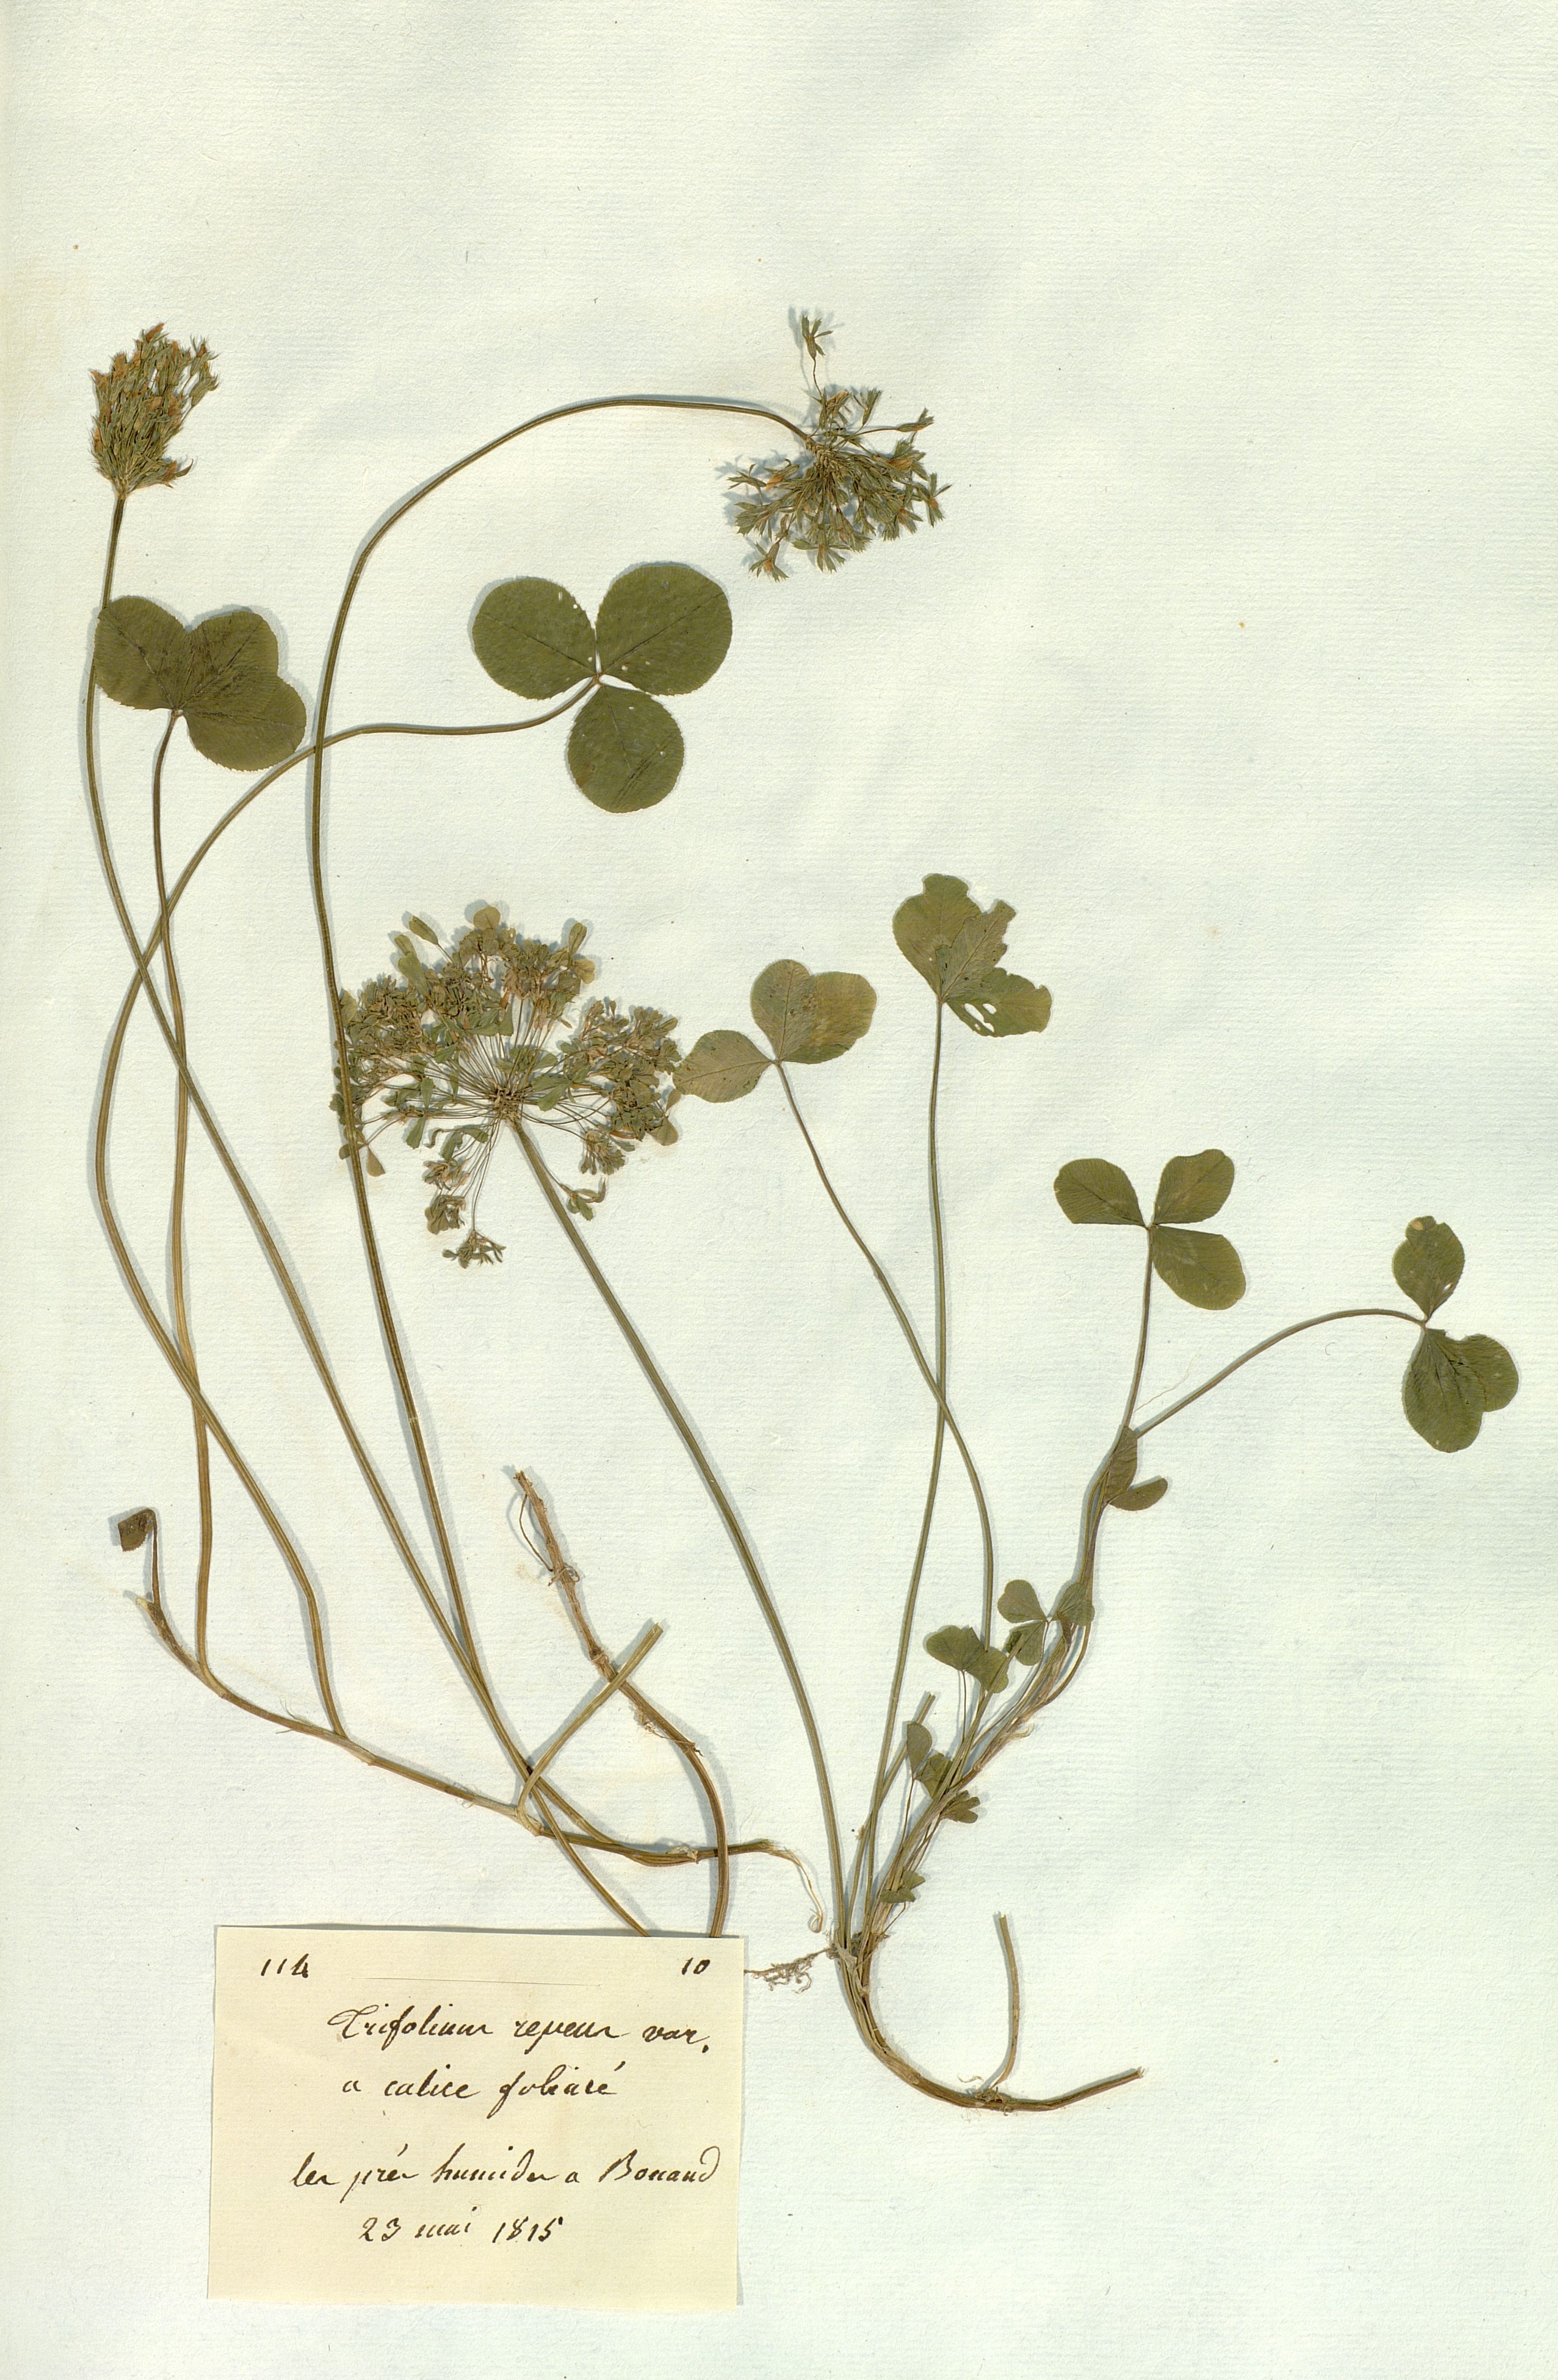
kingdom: Plantae
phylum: Tracheophyta
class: Magnoliopsida
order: Fabales
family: Fabaceae
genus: Trifolium
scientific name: Trifolium repens
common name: White clover
